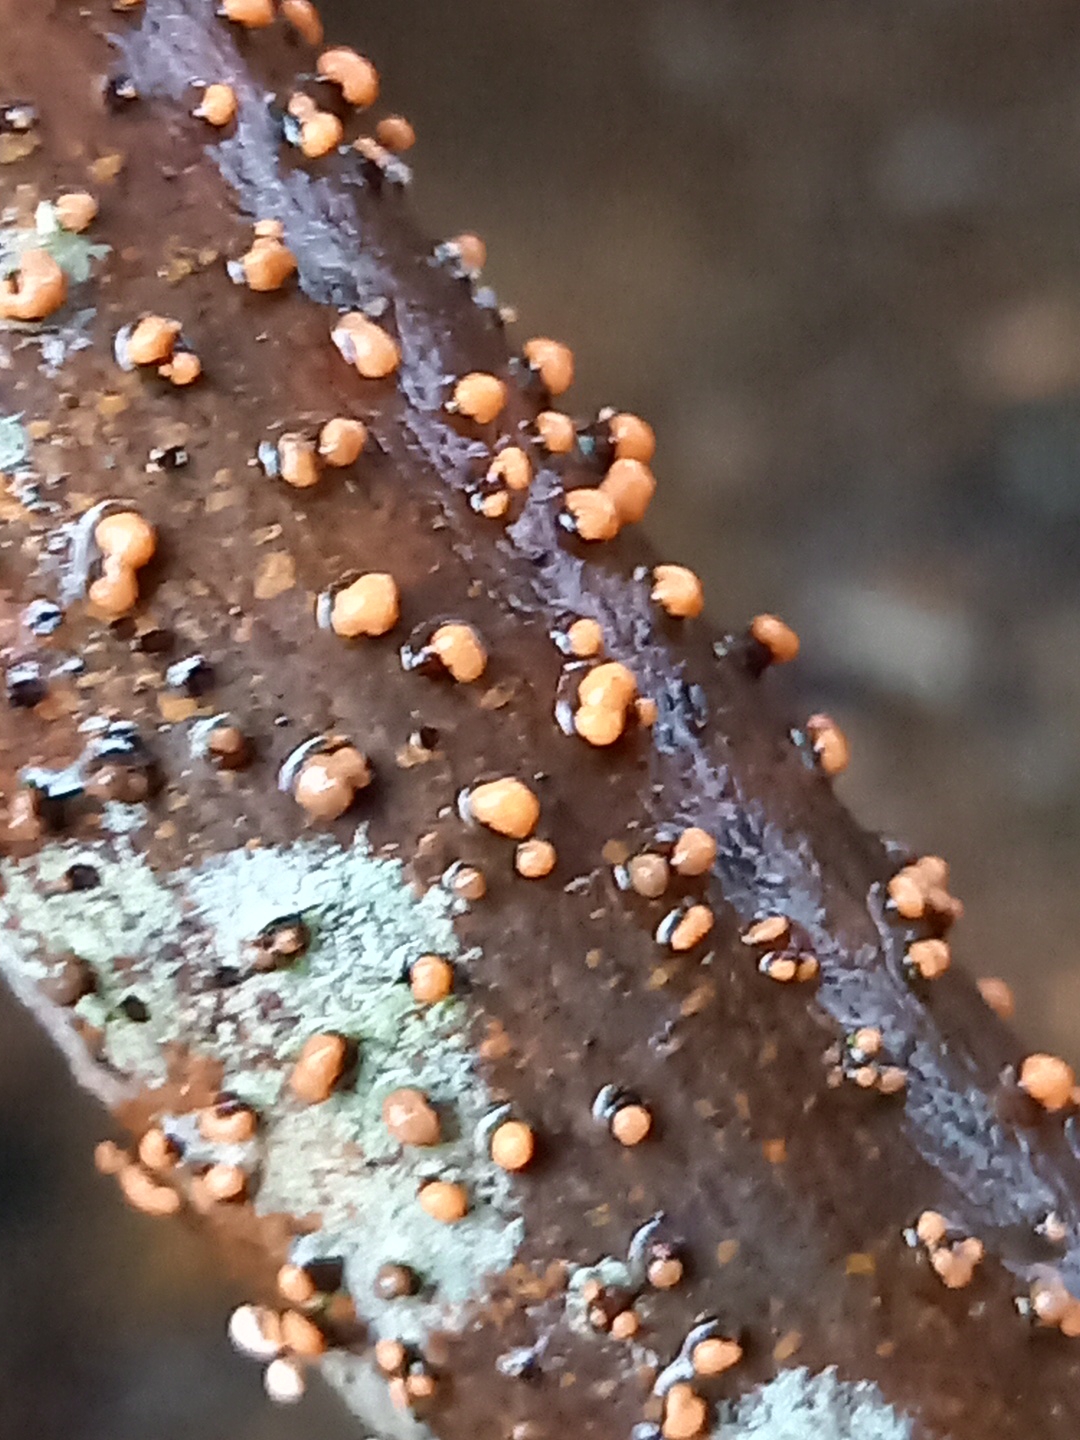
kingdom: Fungi
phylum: Ascomycota
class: Sordariomycetes
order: Hypocreales
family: Nectriaceae
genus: Nectria
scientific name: Nectria cinnabarina
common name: almindelig cinnobersvamp
